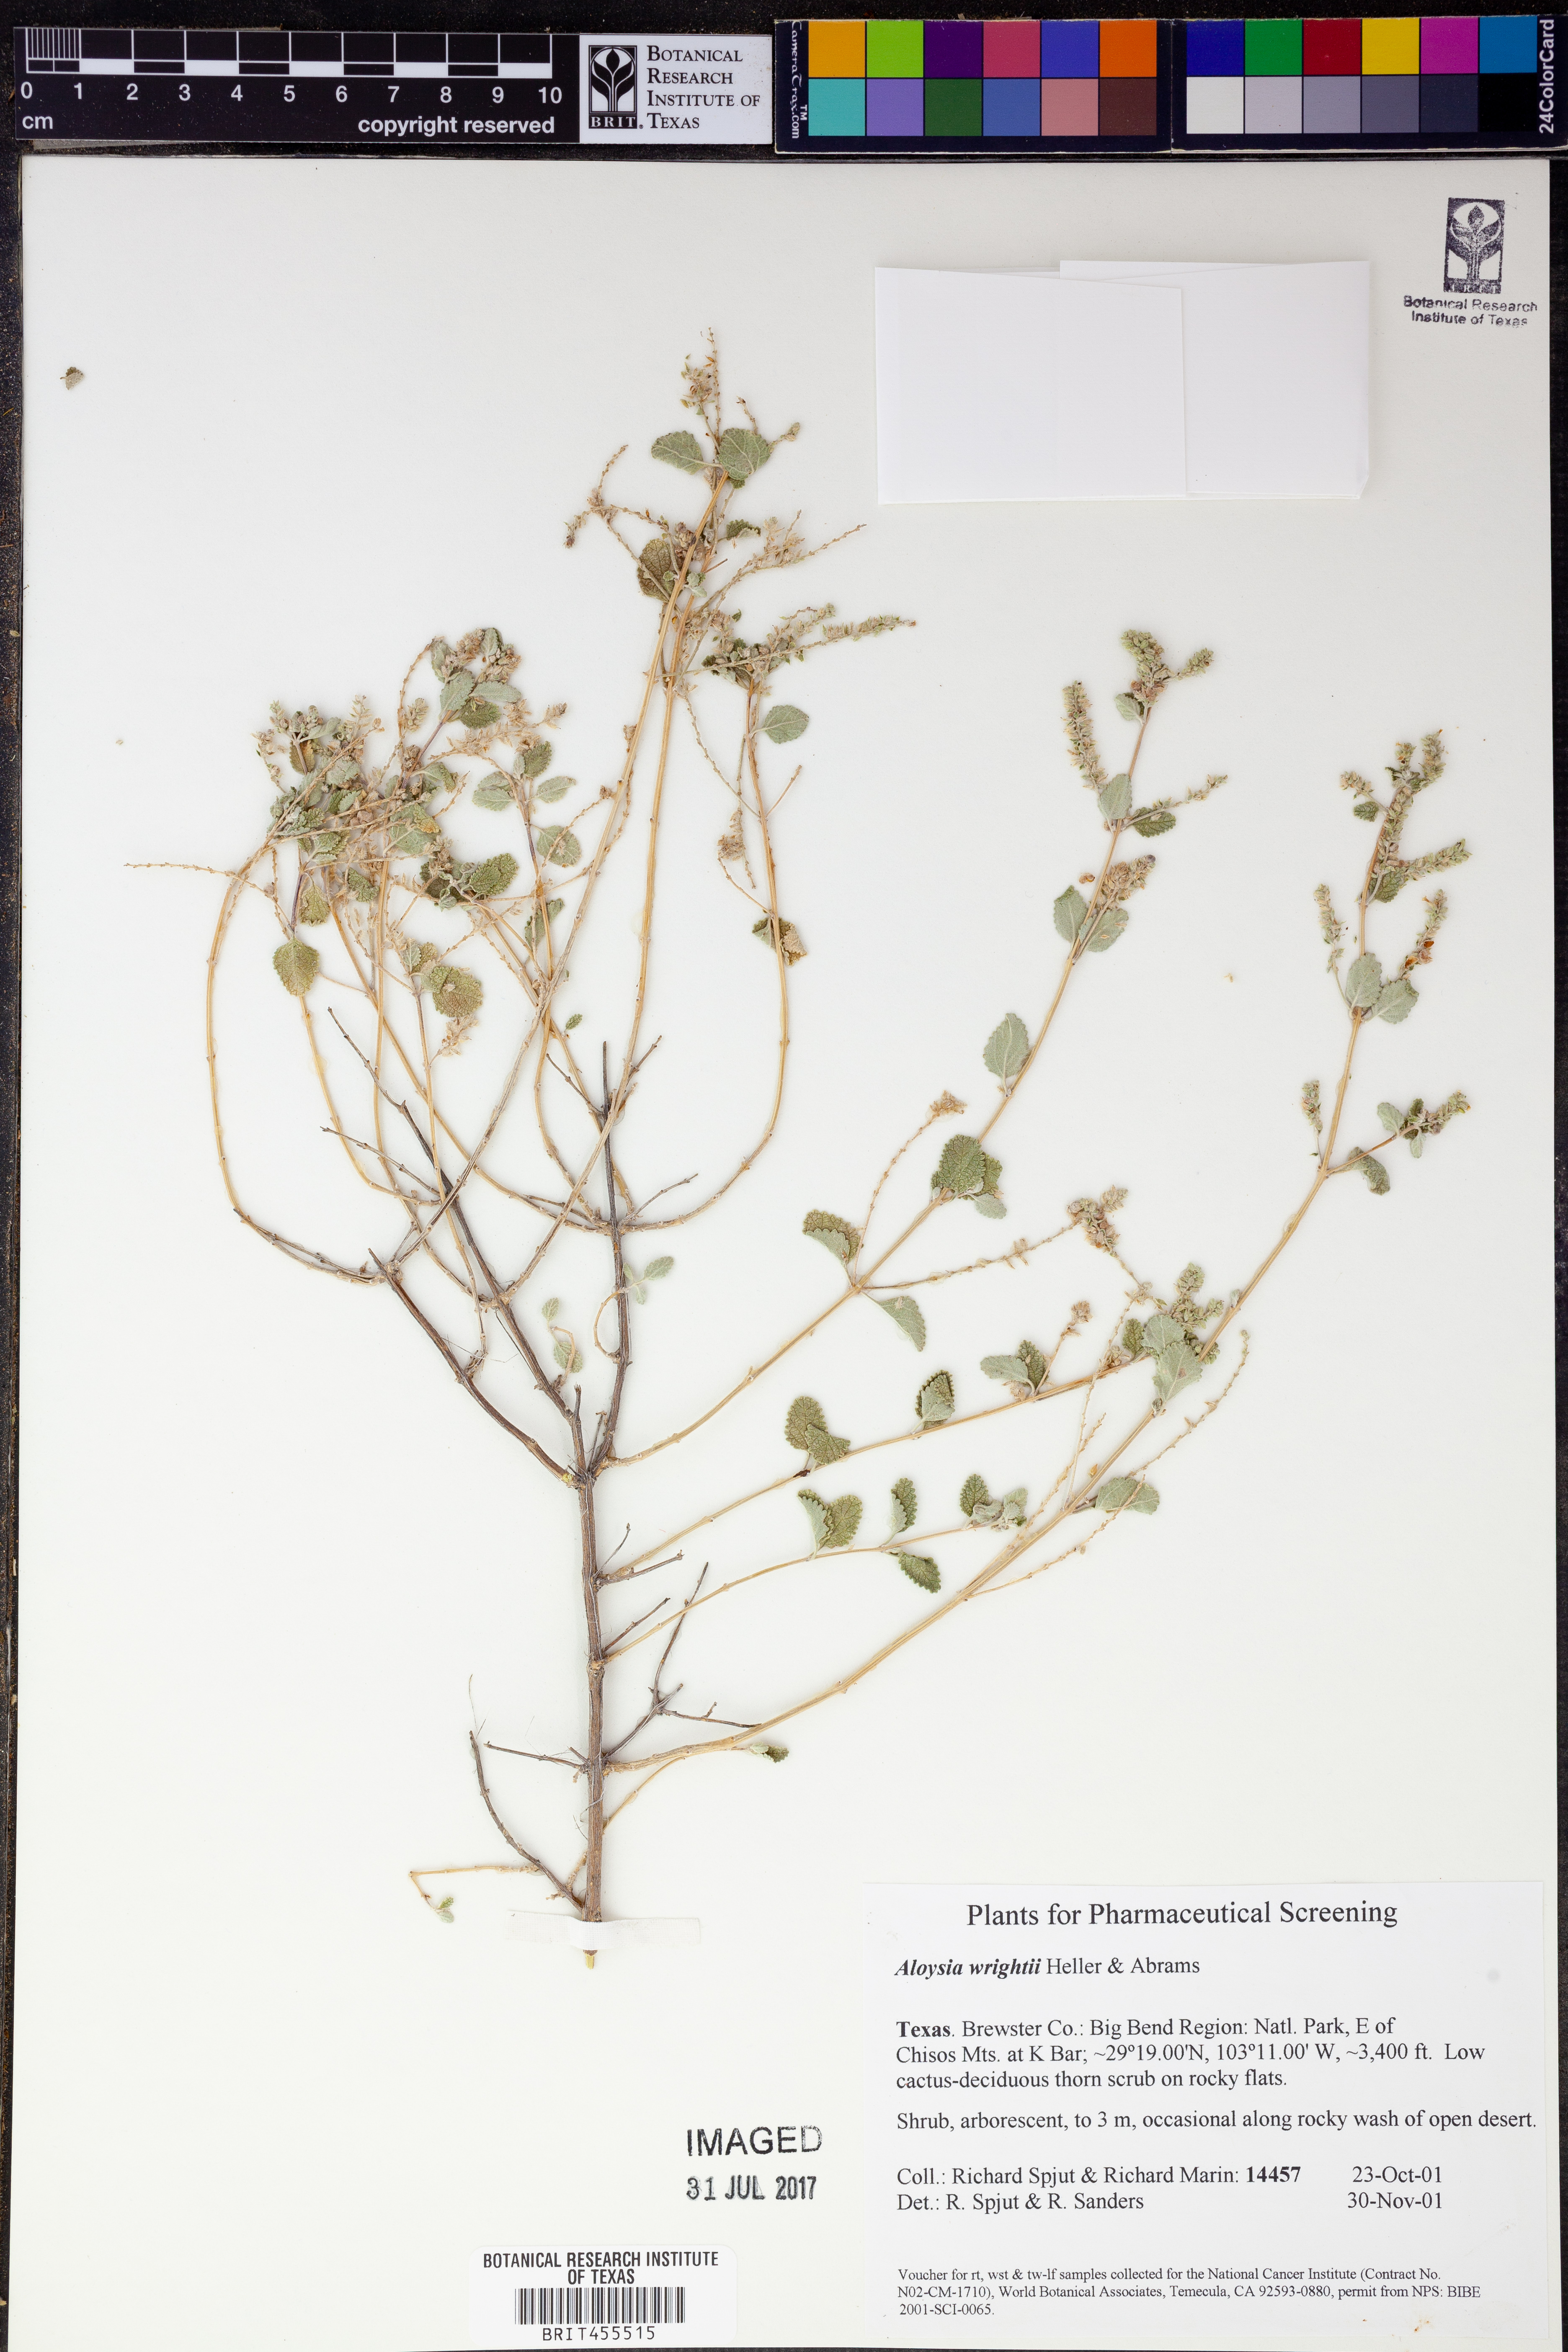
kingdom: Plantae
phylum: Tracheophyta
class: Magnoliopsida
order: Lamiales
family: Verbenaceae
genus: Aloysia
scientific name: Aloysia wrightii
